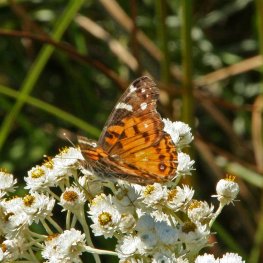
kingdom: Animalia
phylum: Arthropoda
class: Insecta
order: Lepidoptera
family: Nymphalidae
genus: Vanessa
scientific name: Vanessa virginiensis
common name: American Lady
